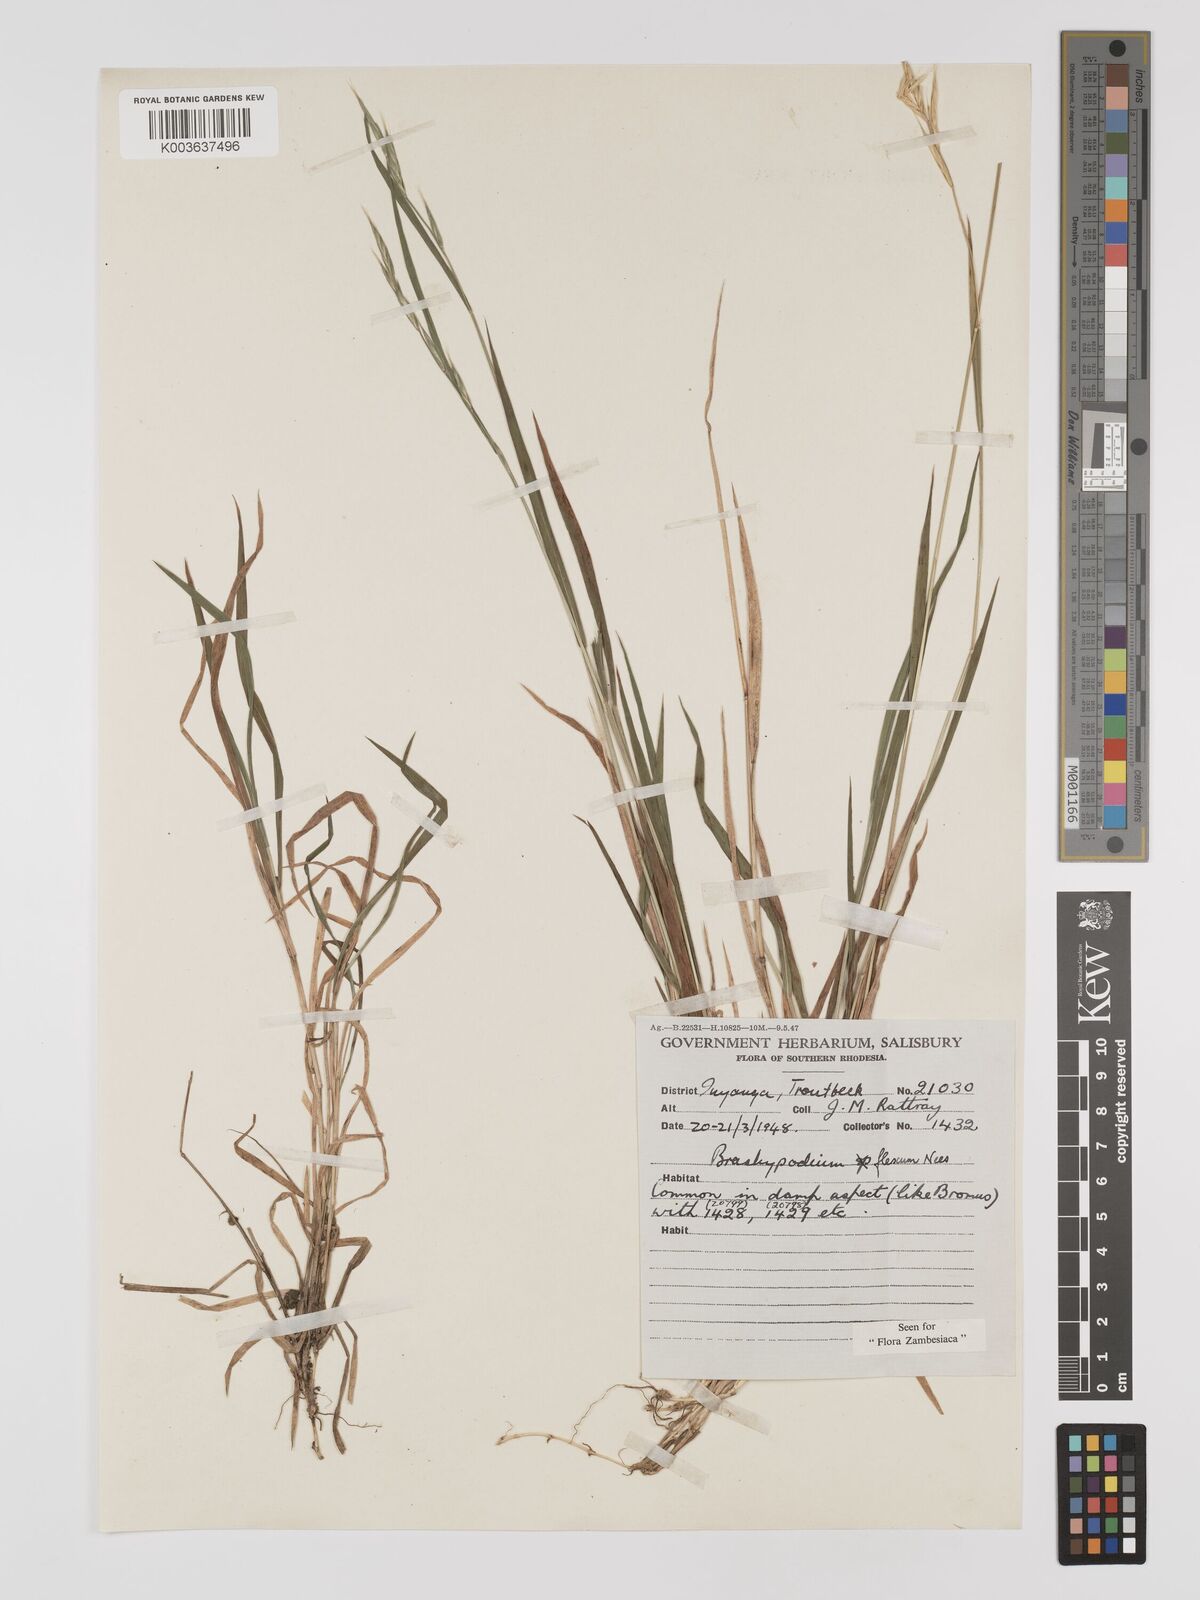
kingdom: Plantae
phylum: Tracheophyta
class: Liliopsida
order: Poales
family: Poaceae
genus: Brachypodium
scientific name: Brachypodium flexum
